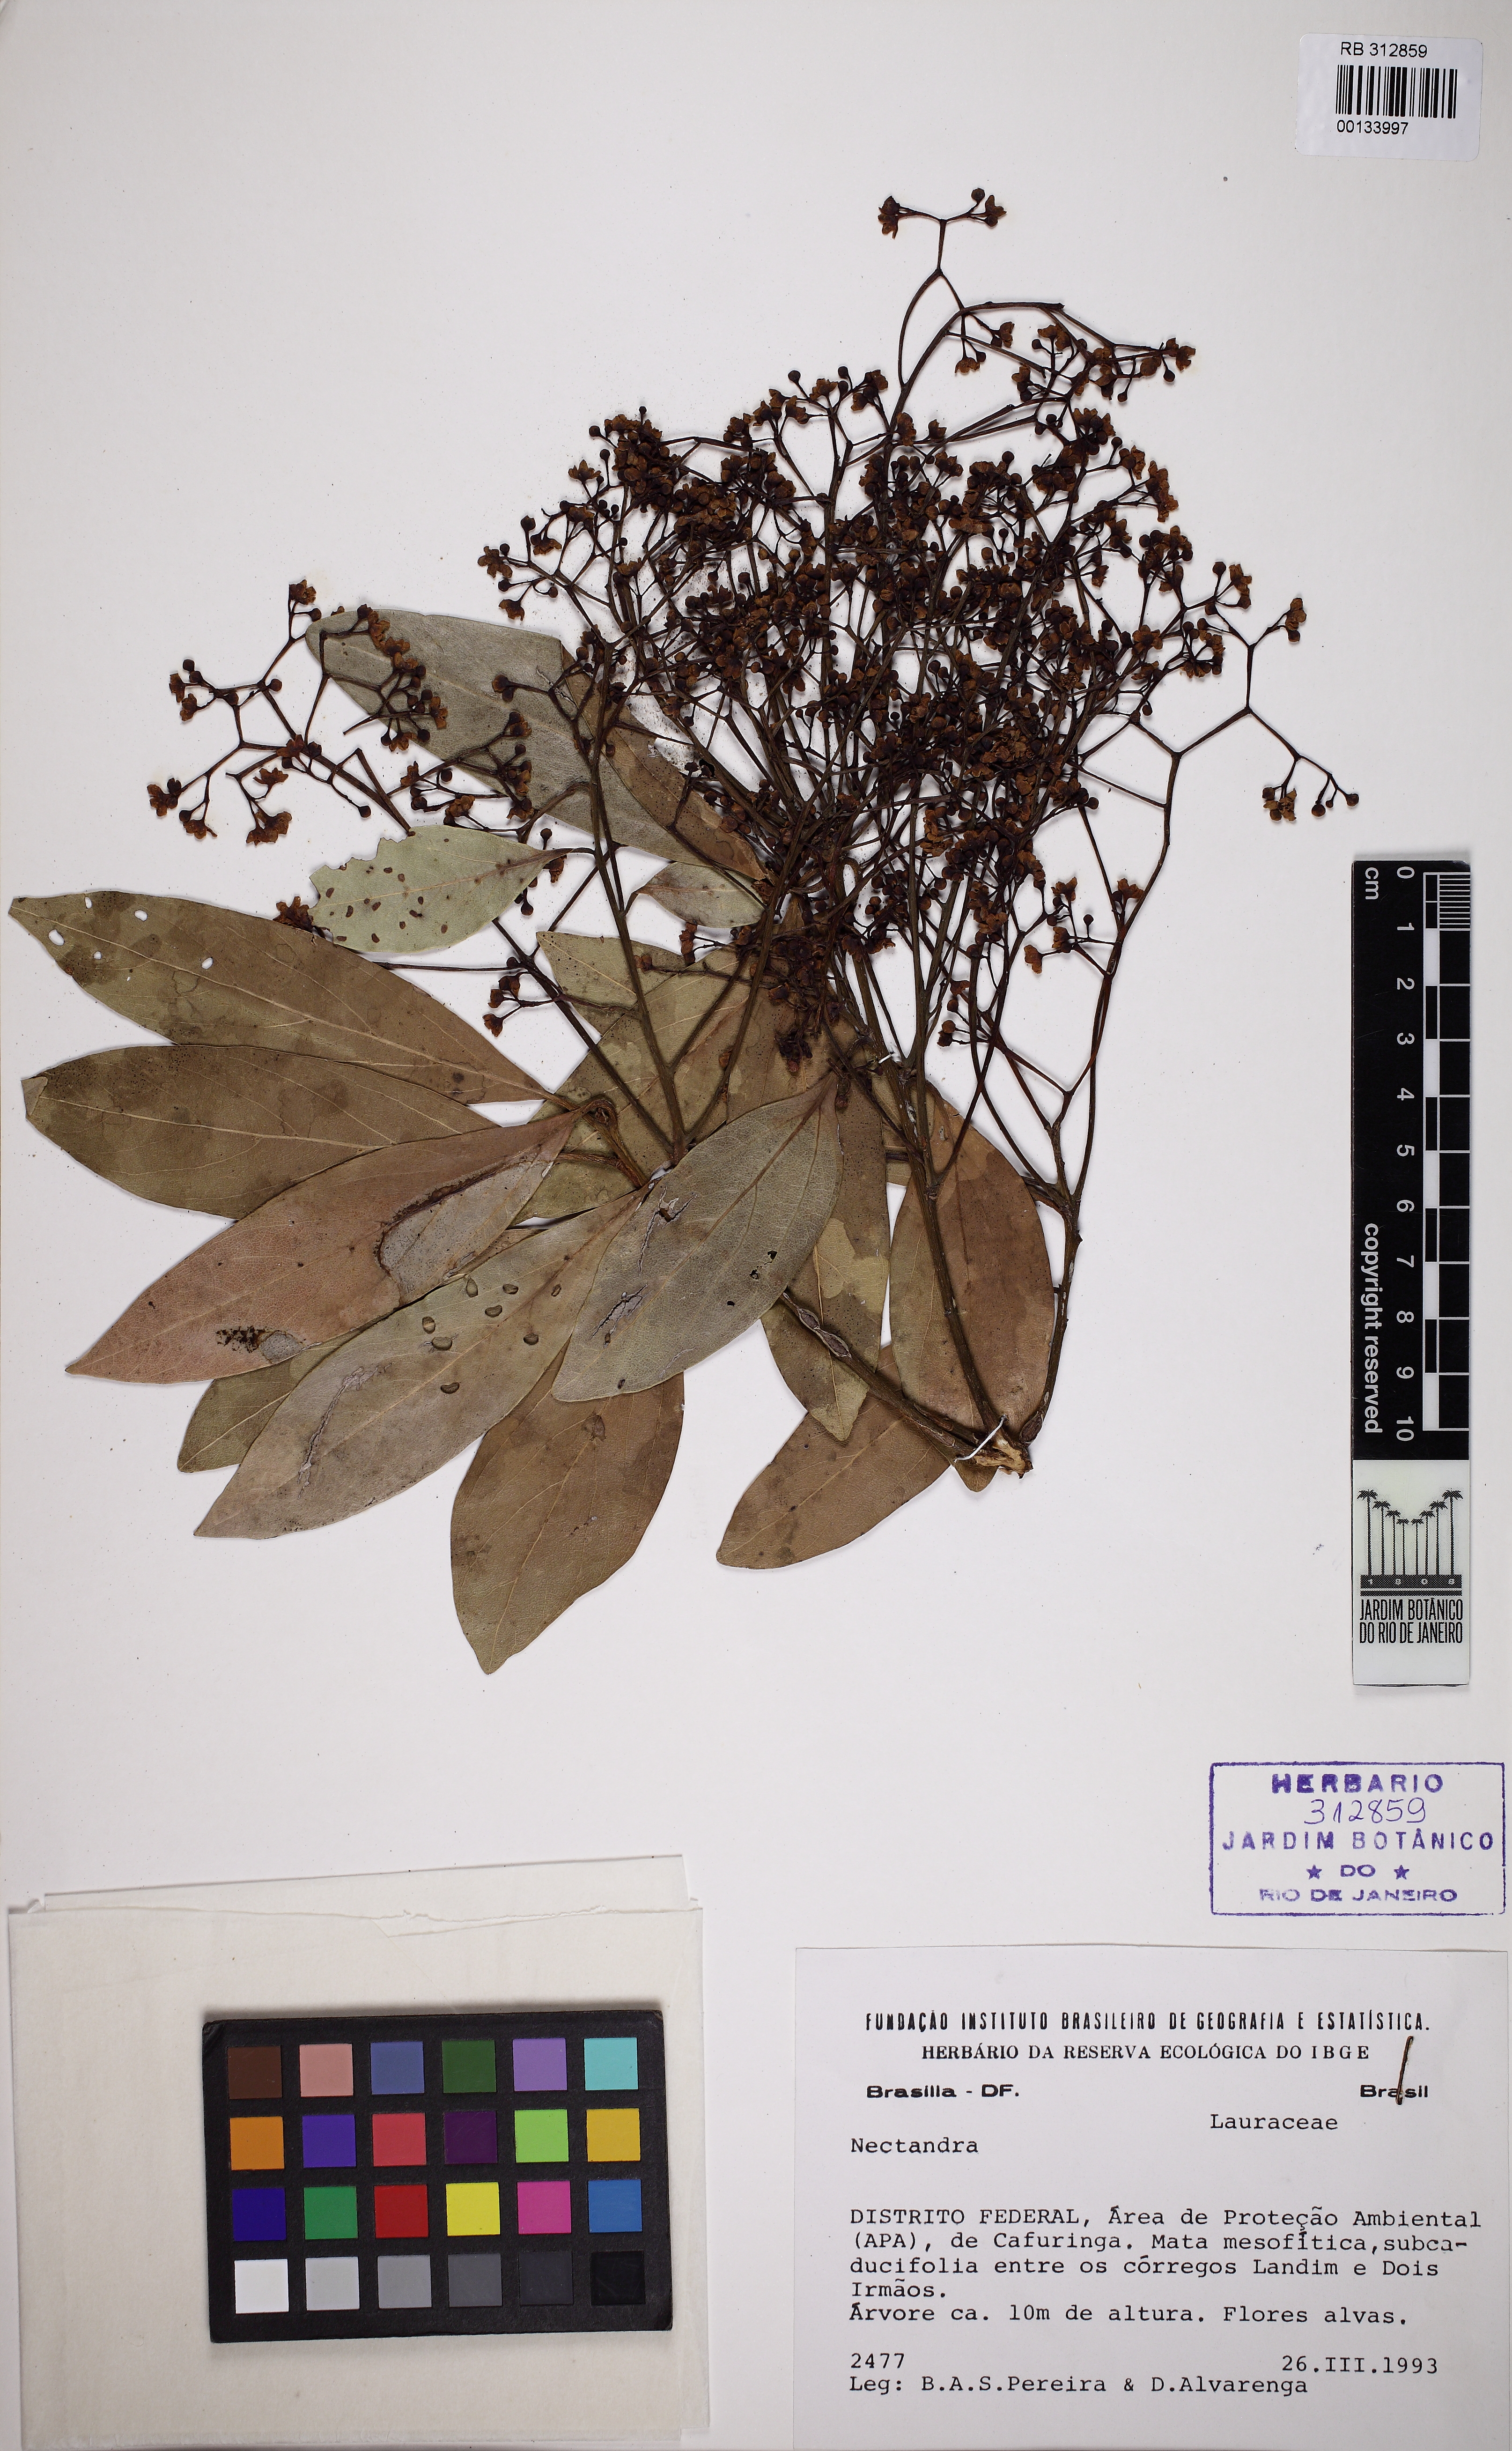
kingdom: Plantae
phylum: Tracheophyta
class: Magnoliopsida
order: Laurales
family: Lauraceae
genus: Nectandra
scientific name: Nectandra turbacensis
